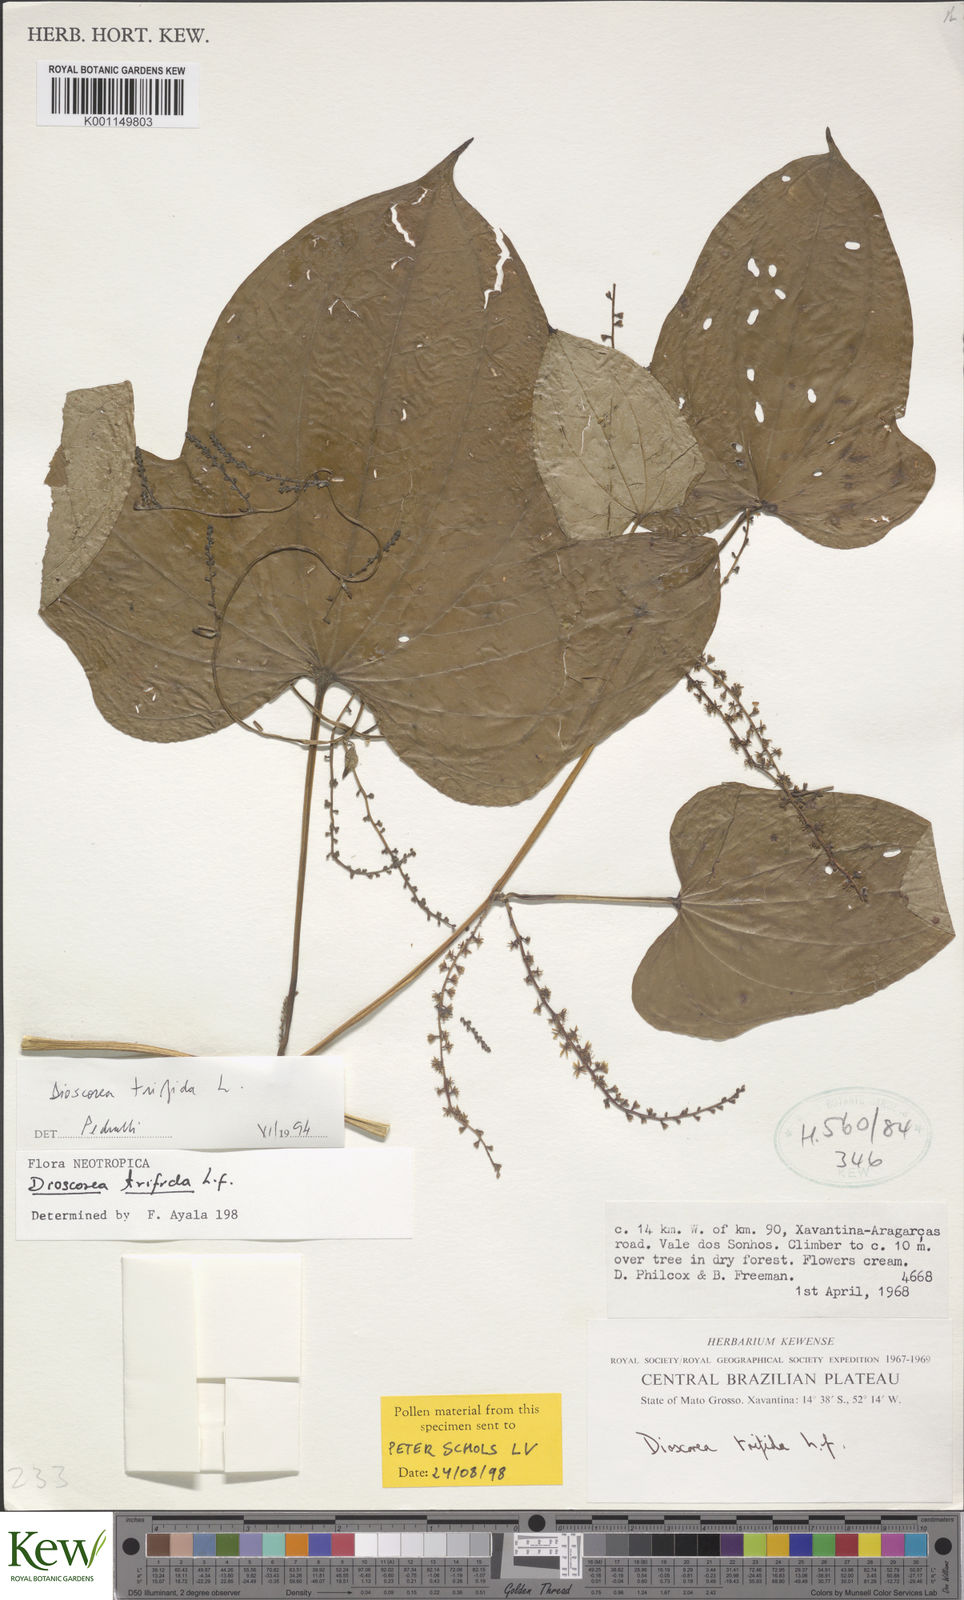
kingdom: Plantae
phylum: Tracheophyta
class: Liliopsida
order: Dioscoreales
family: Dioscoreaceae
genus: Dioscorea
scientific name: Dioscorea trifida
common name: Cush-cush
